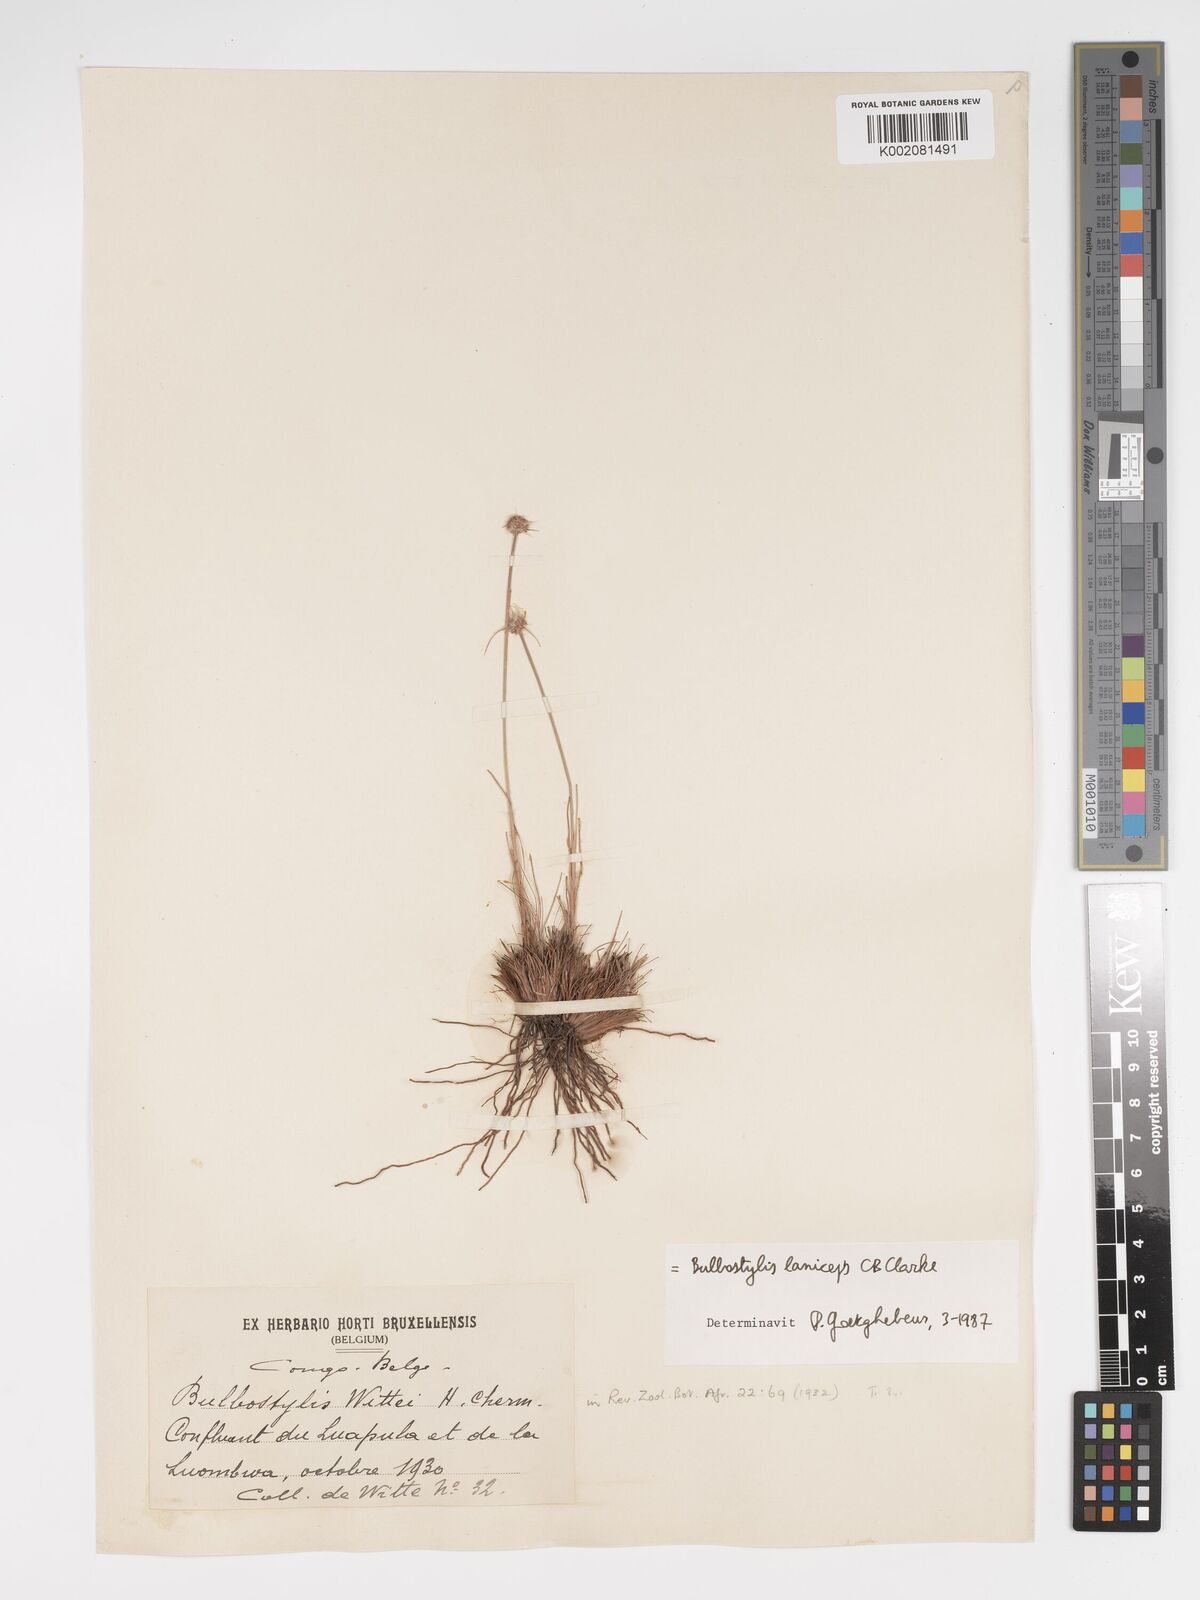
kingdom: Plantae
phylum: Tracheophyta
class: Liliopsida
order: Poales
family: Cyperaceae
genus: Bulbostylis
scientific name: Bulbostylis laniceps
